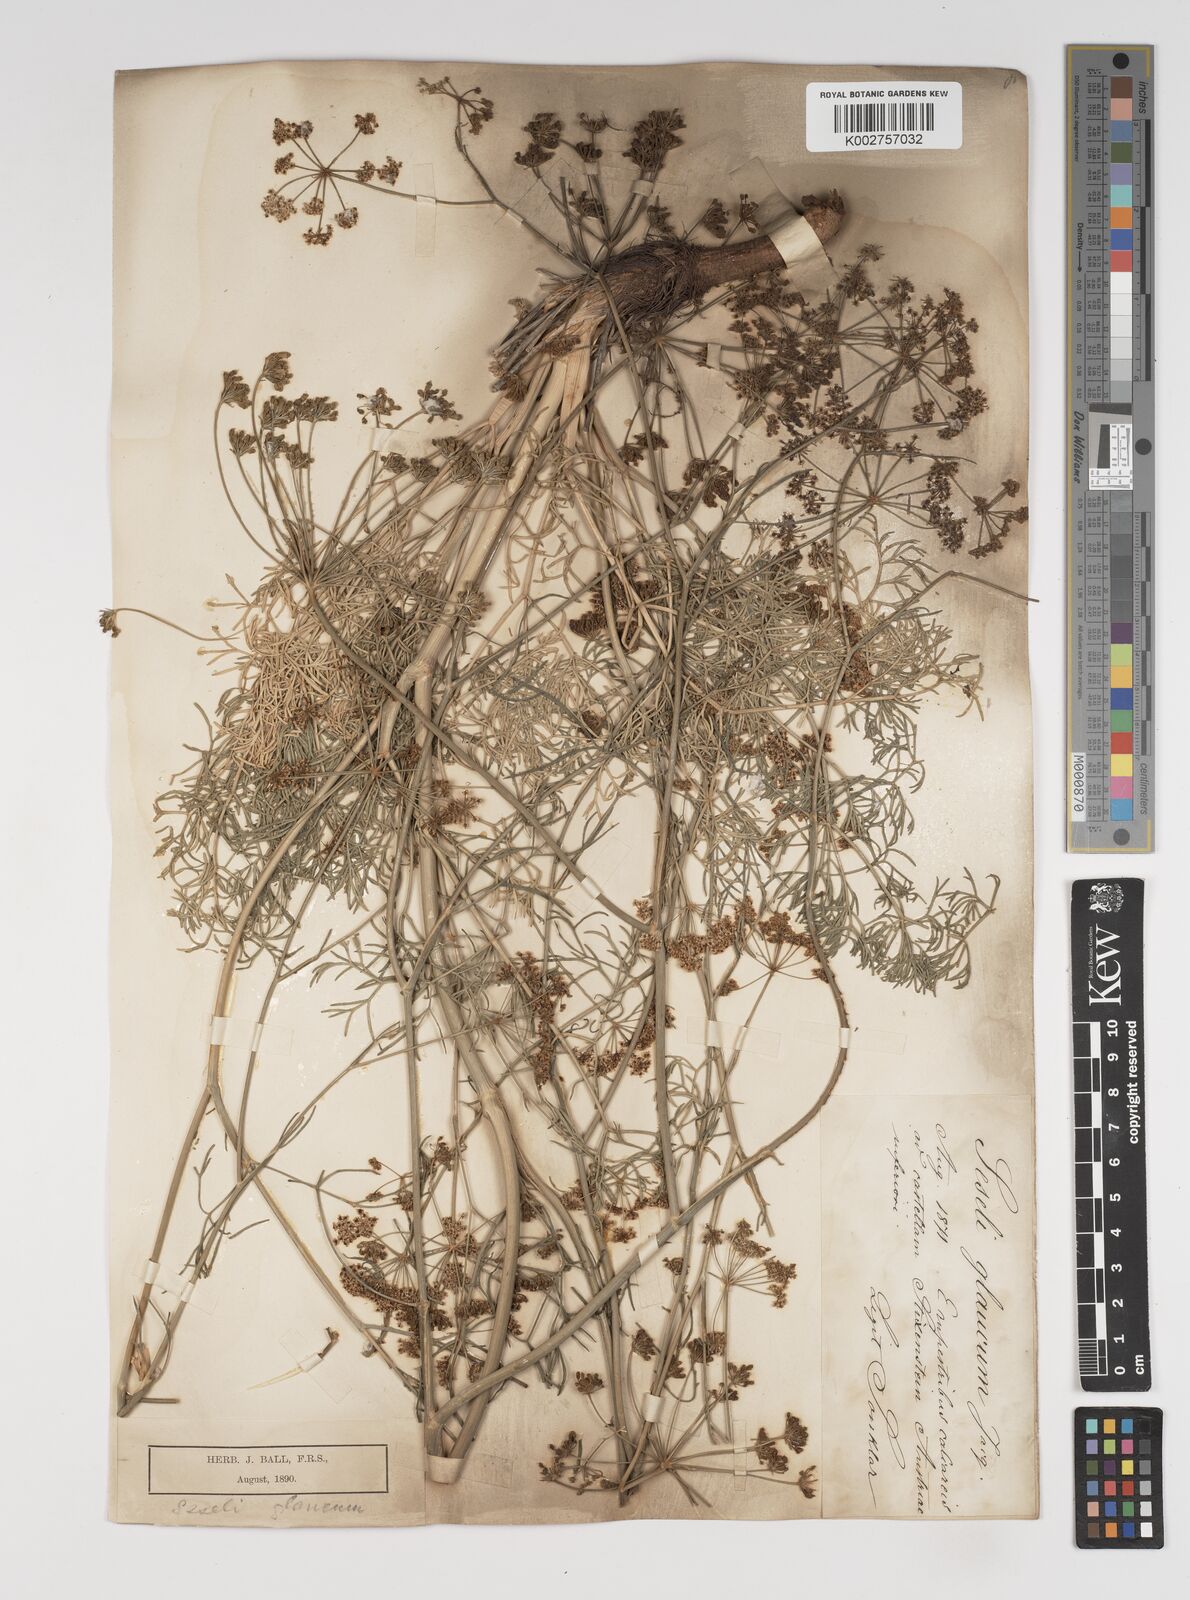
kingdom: Plantae
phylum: Tracheophyta
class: Magnoliopsida
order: Apiales
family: Apiaceae
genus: Seseli
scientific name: Seseli montanum
